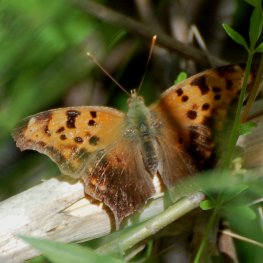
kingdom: Animalia
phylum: Arthropoda
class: Insecta
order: Lepidoptera
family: Nymphalidae
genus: Polygonia
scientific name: Polygonia interrogationis
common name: Question Mark
